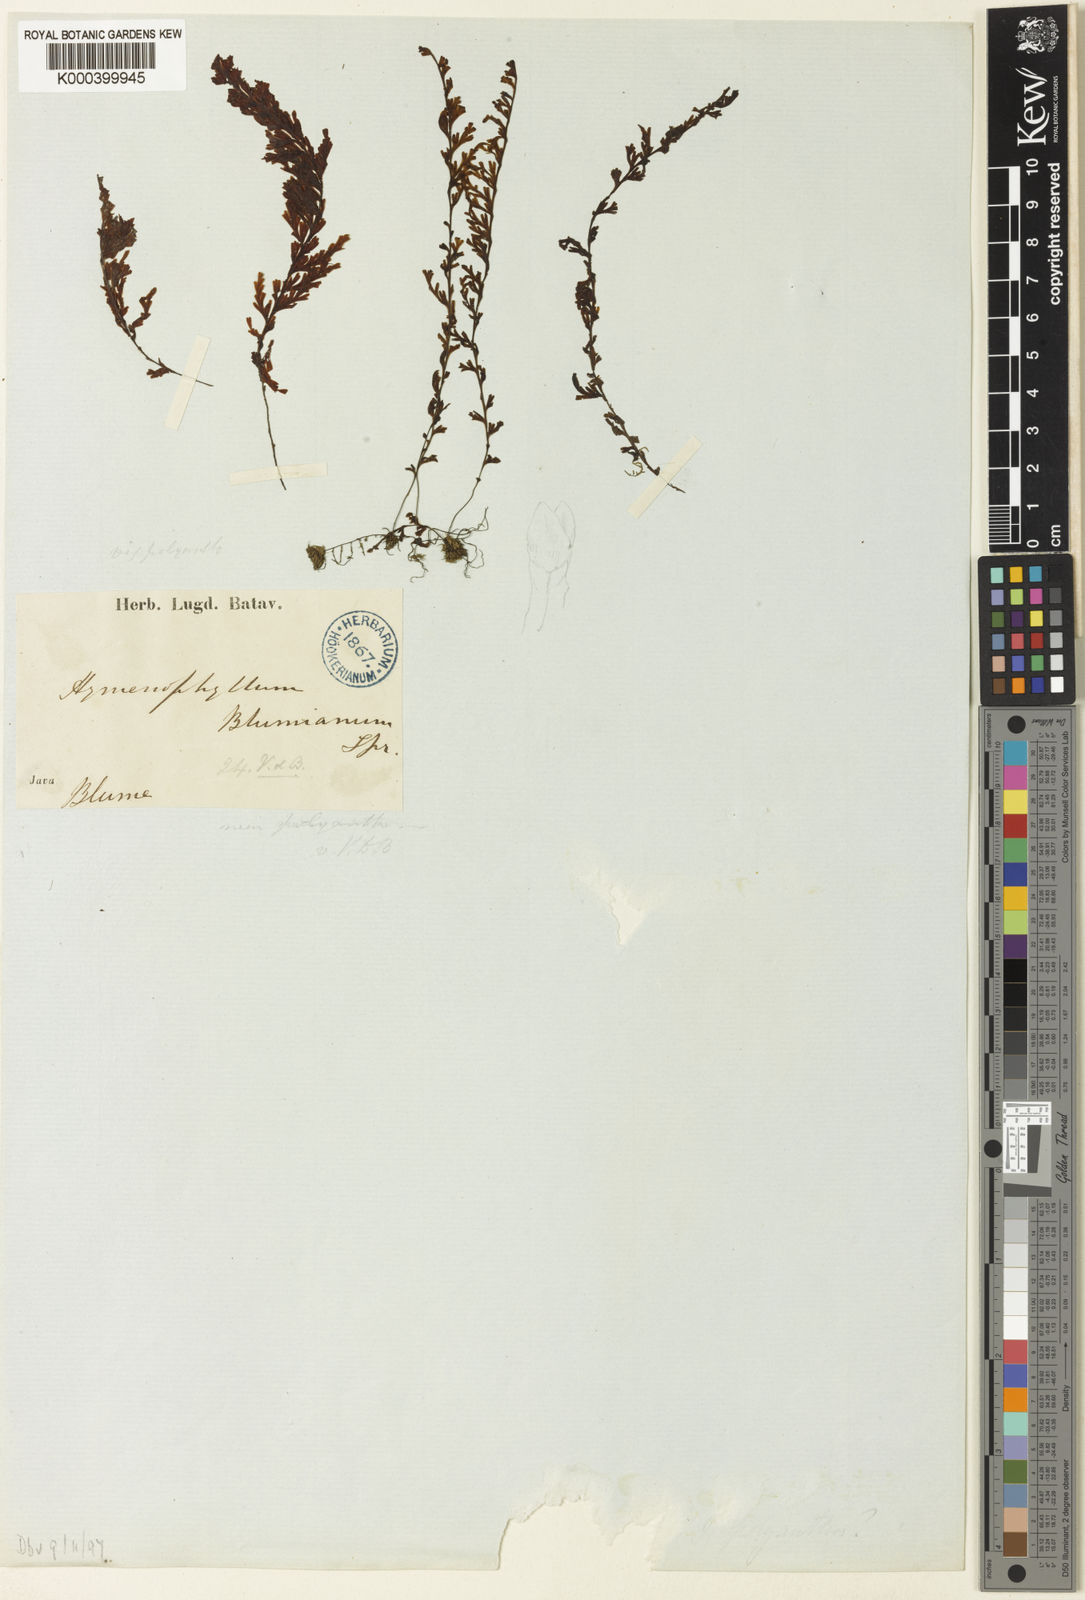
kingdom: Plantae
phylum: Tracheophyta
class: Polypodiopsida
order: Hymenophyllales
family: Hymenophyllaceae
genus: Hymenophyllum
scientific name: Hymenophyllum fumarioides
